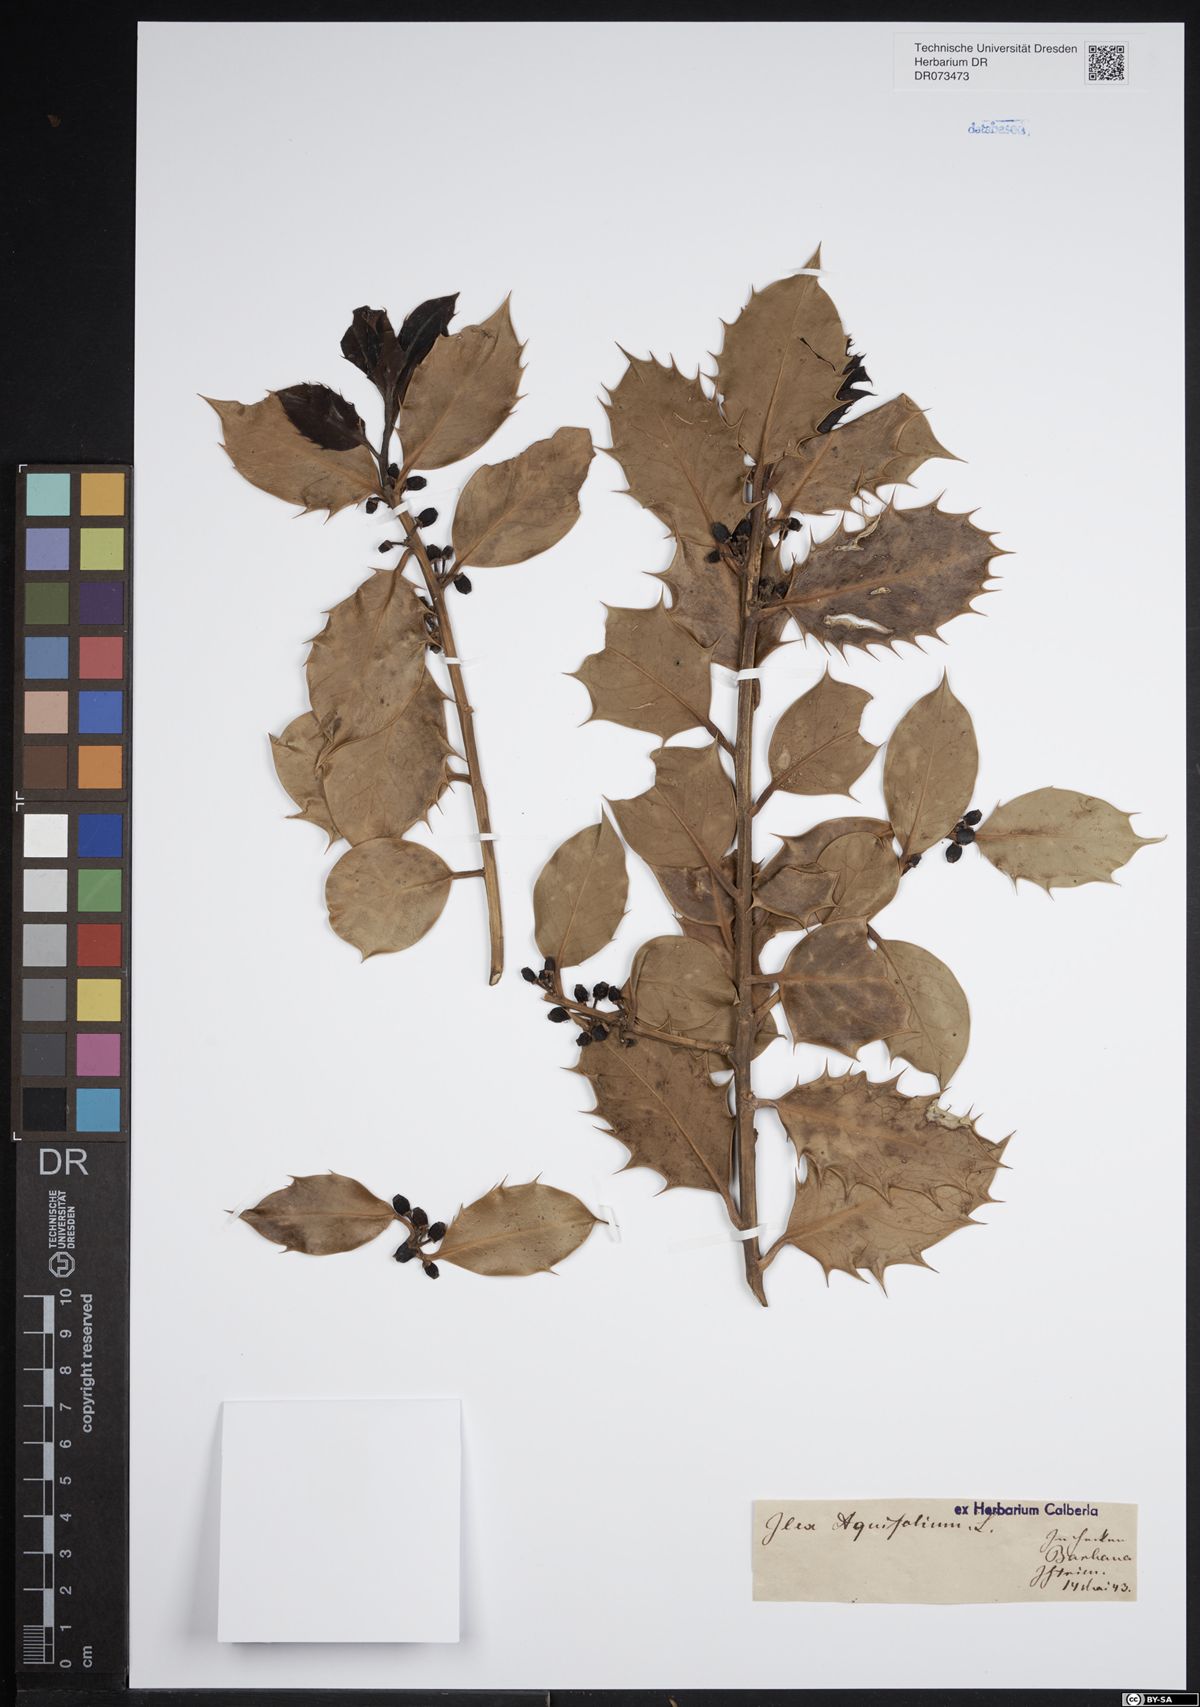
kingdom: Plantae
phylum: Tracheophyta
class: Magnoliopsida
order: Aquifoliales
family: Aquifoliaceae
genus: Ilex
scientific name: Ilex aquifolium
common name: English holly
